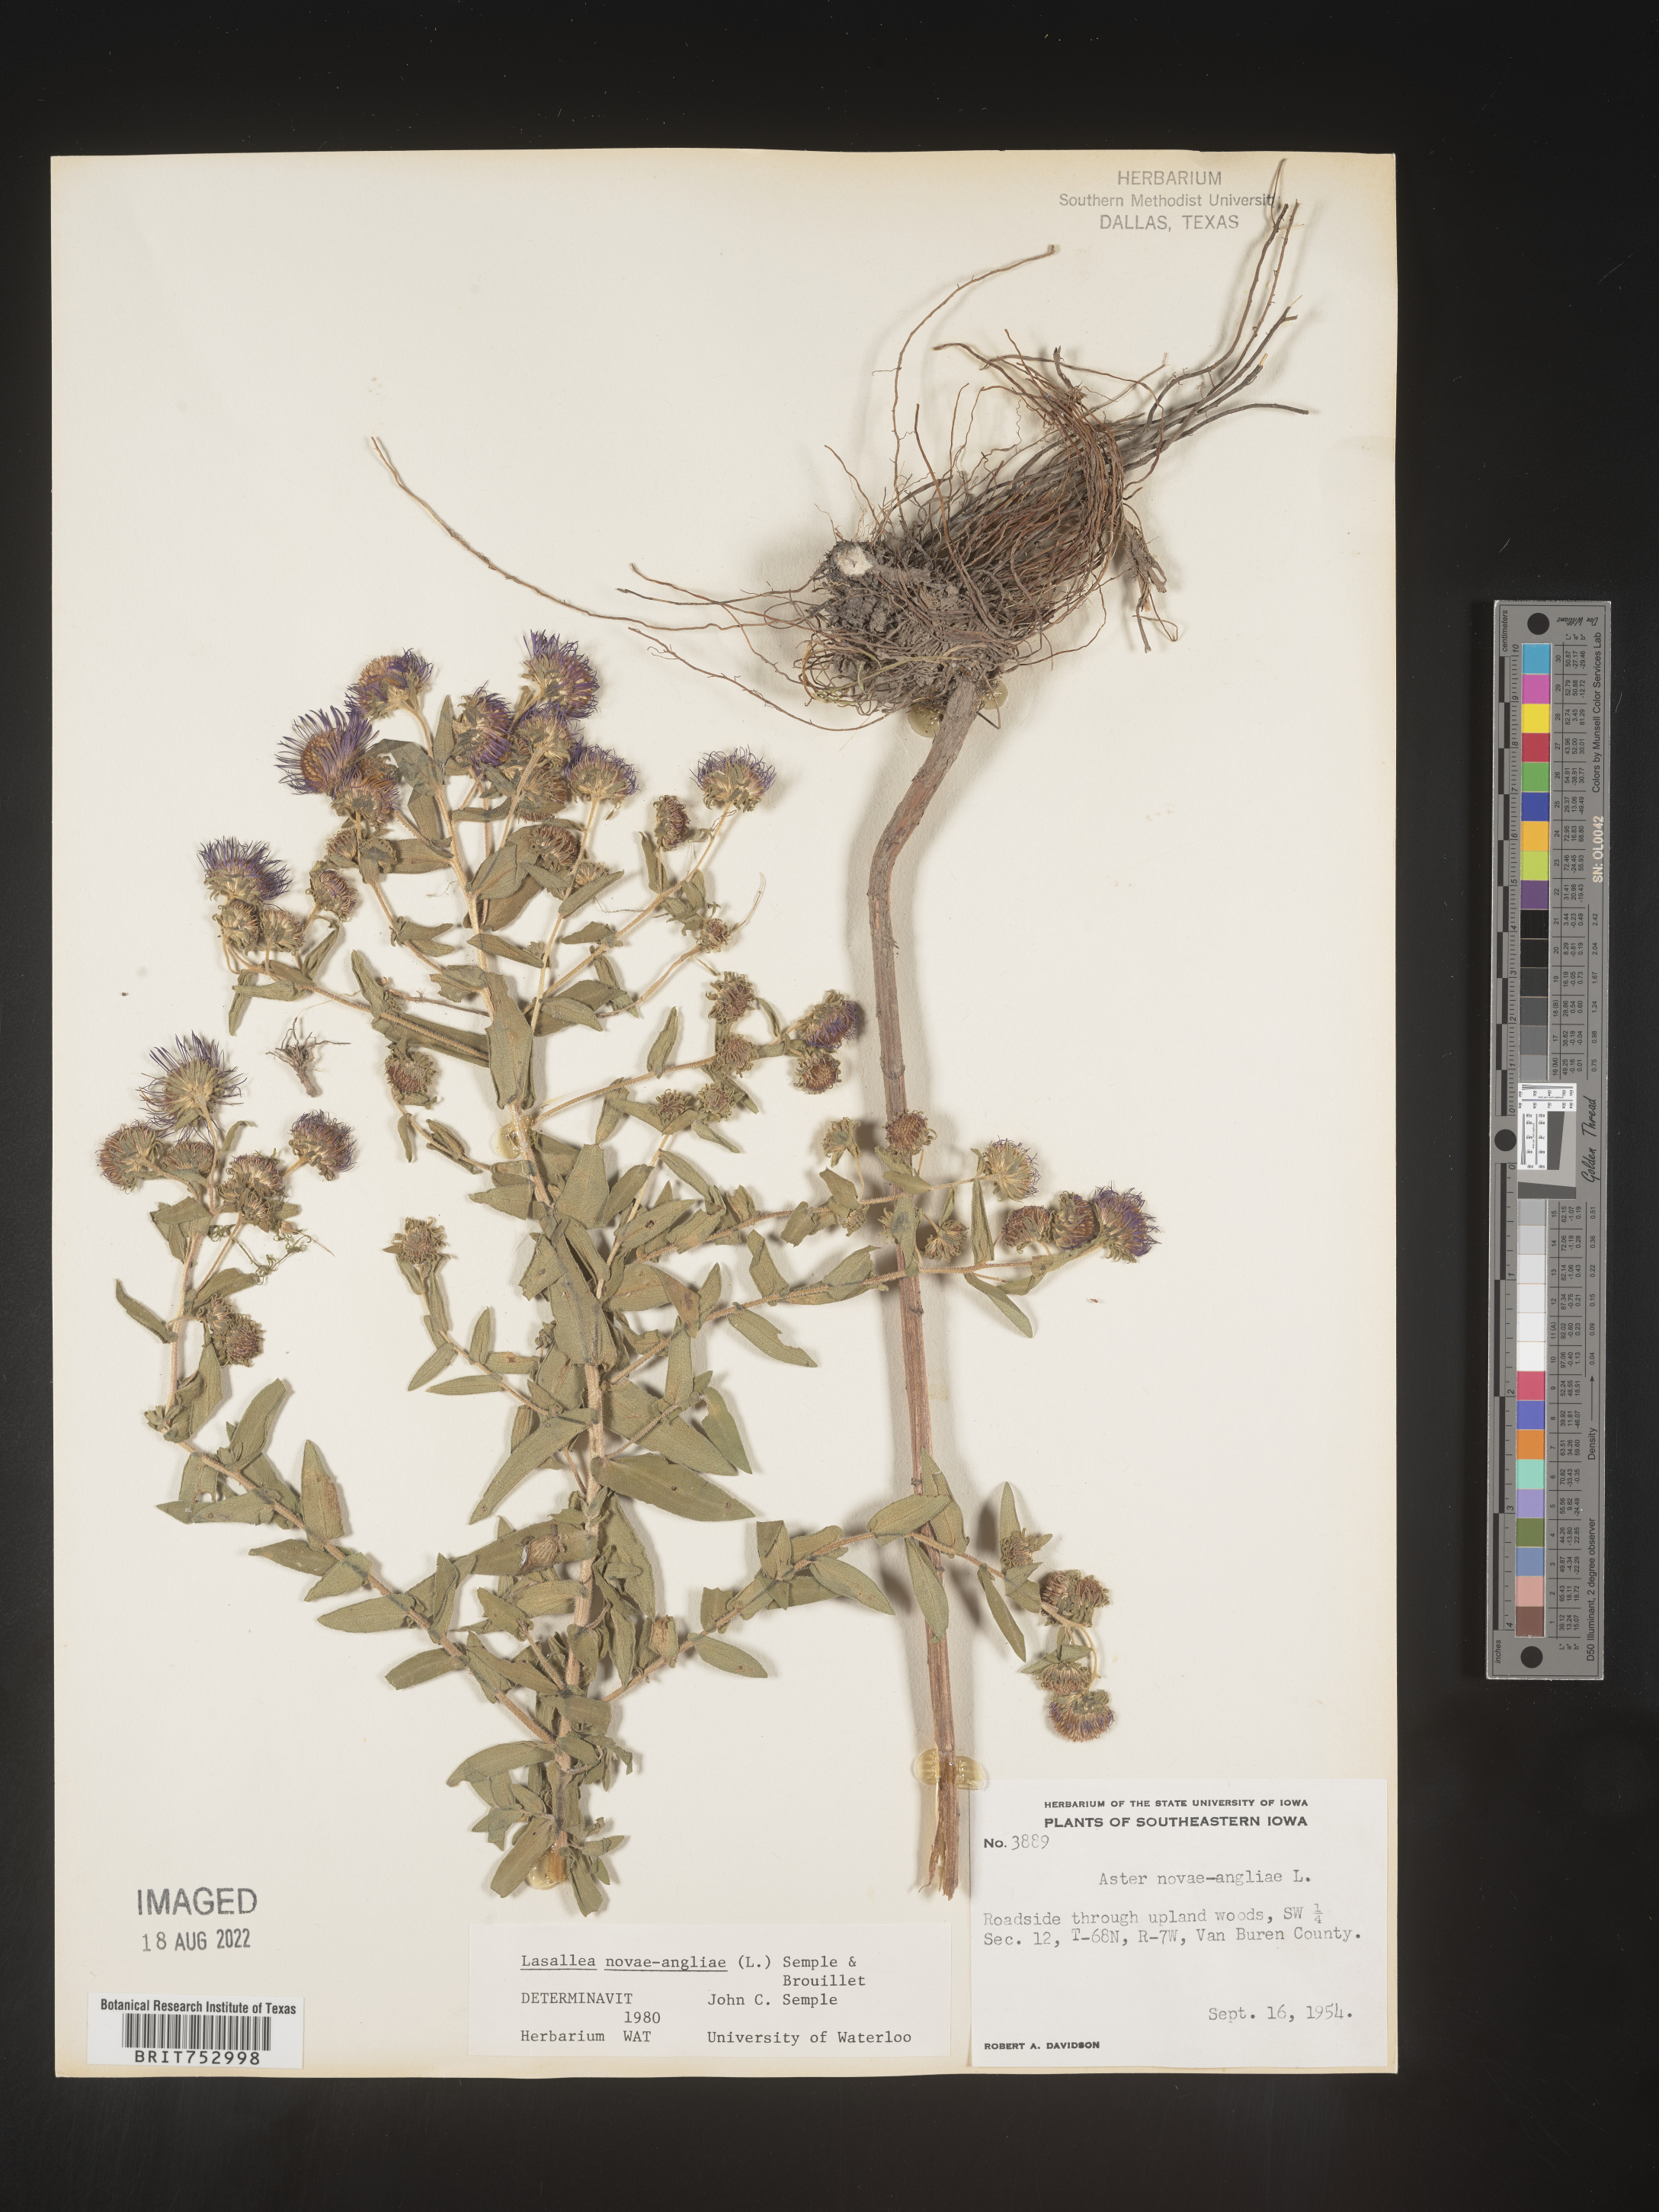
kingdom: Plantae
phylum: Tracheophyta
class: Magnoliopsida
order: Asterales
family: Asteraceae
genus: Symphyotrichum
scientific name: Symphyotrichum novae-angliae
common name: Michaelmas daisy
